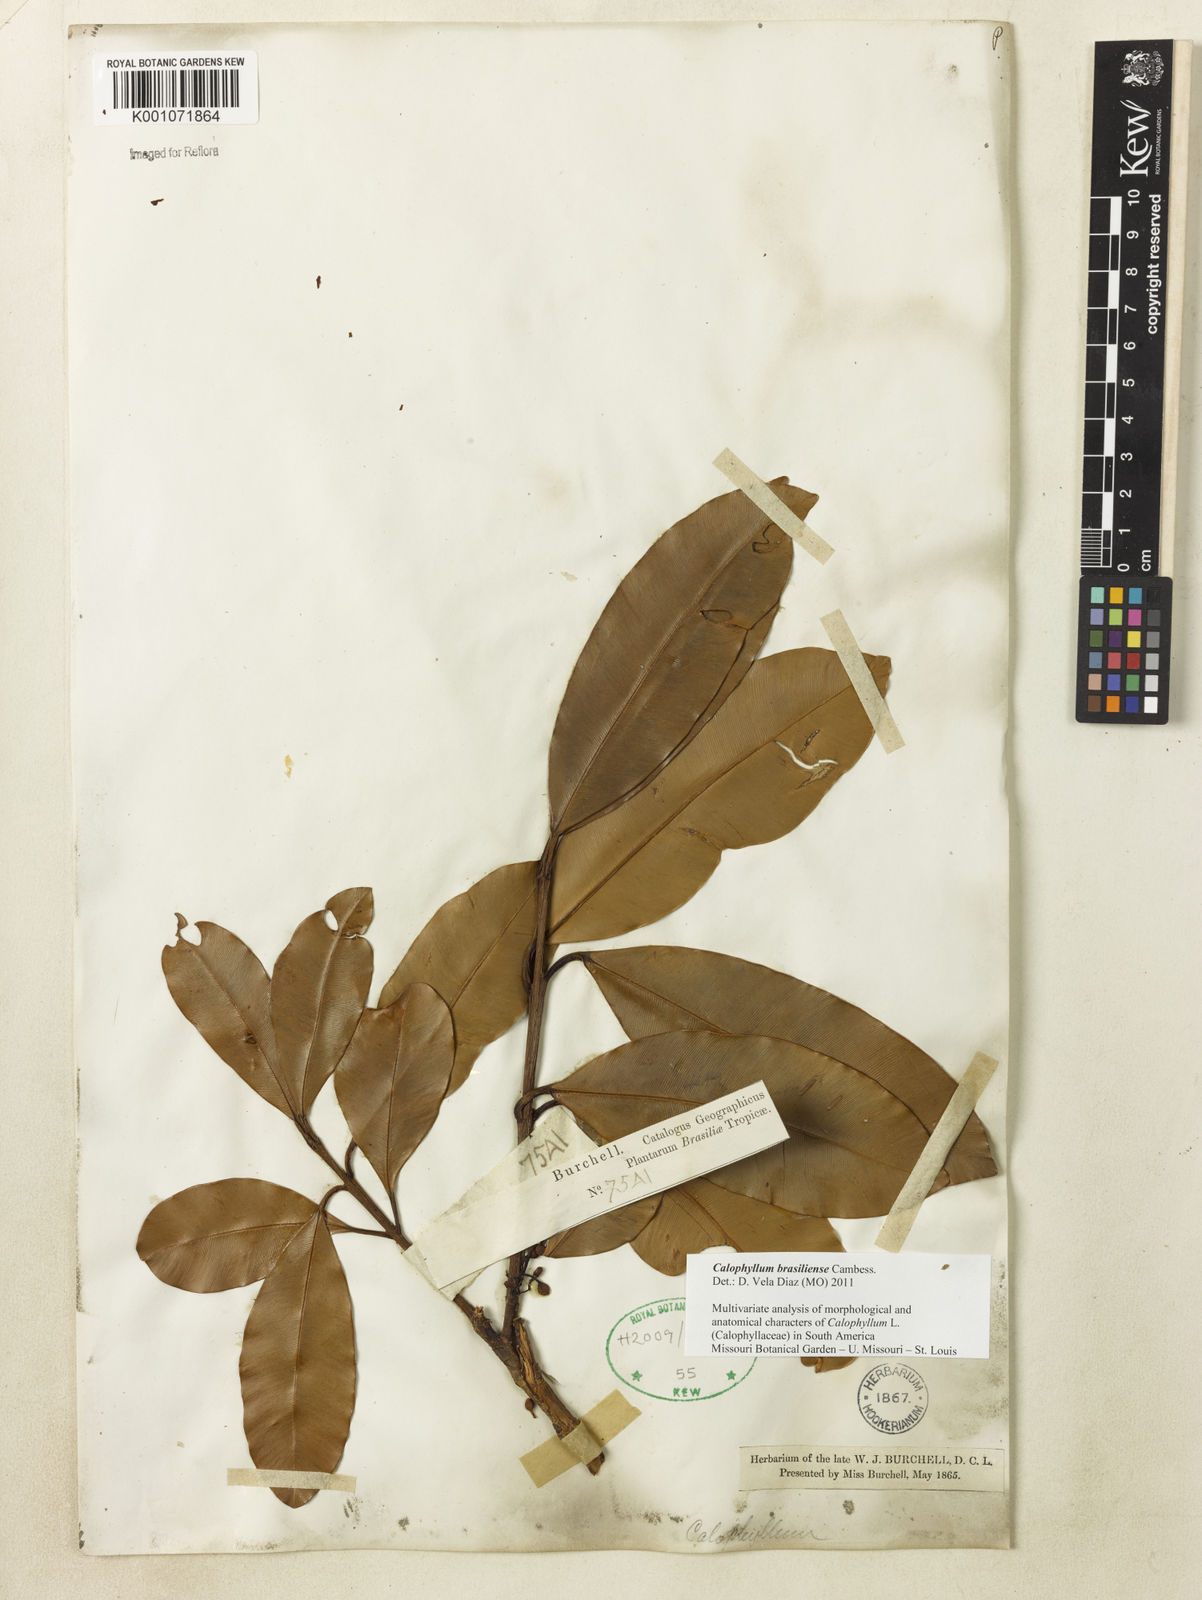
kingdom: Plantae
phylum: Tracheophyta
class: Magnoliopsida
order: Malpighiales
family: Calophyllaceae
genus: Calophyllum
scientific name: Calophyllum brasiliense
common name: Santa maria
